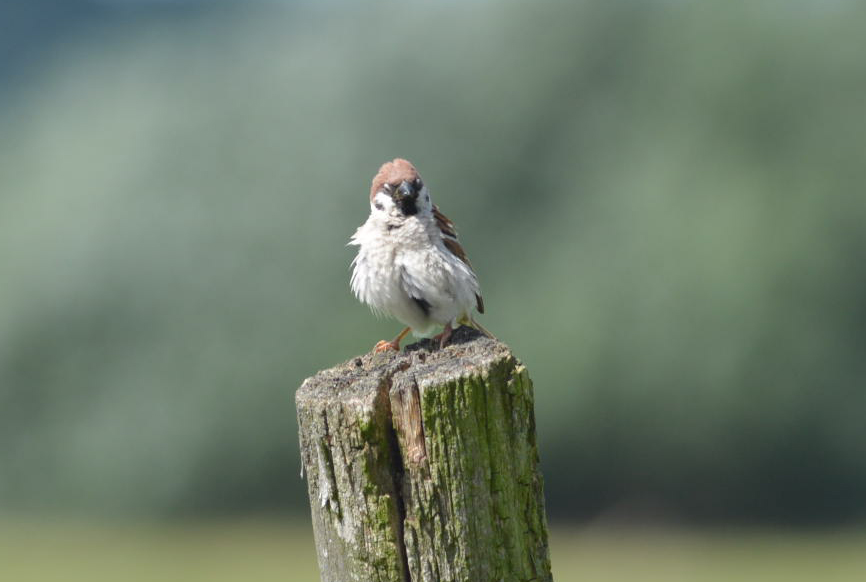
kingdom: Animalia
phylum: Chordata
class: Aves
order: Passeriformes
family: Passeridae
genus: Passer
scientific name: Passer montanus
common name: Eurasian tree sparrow
